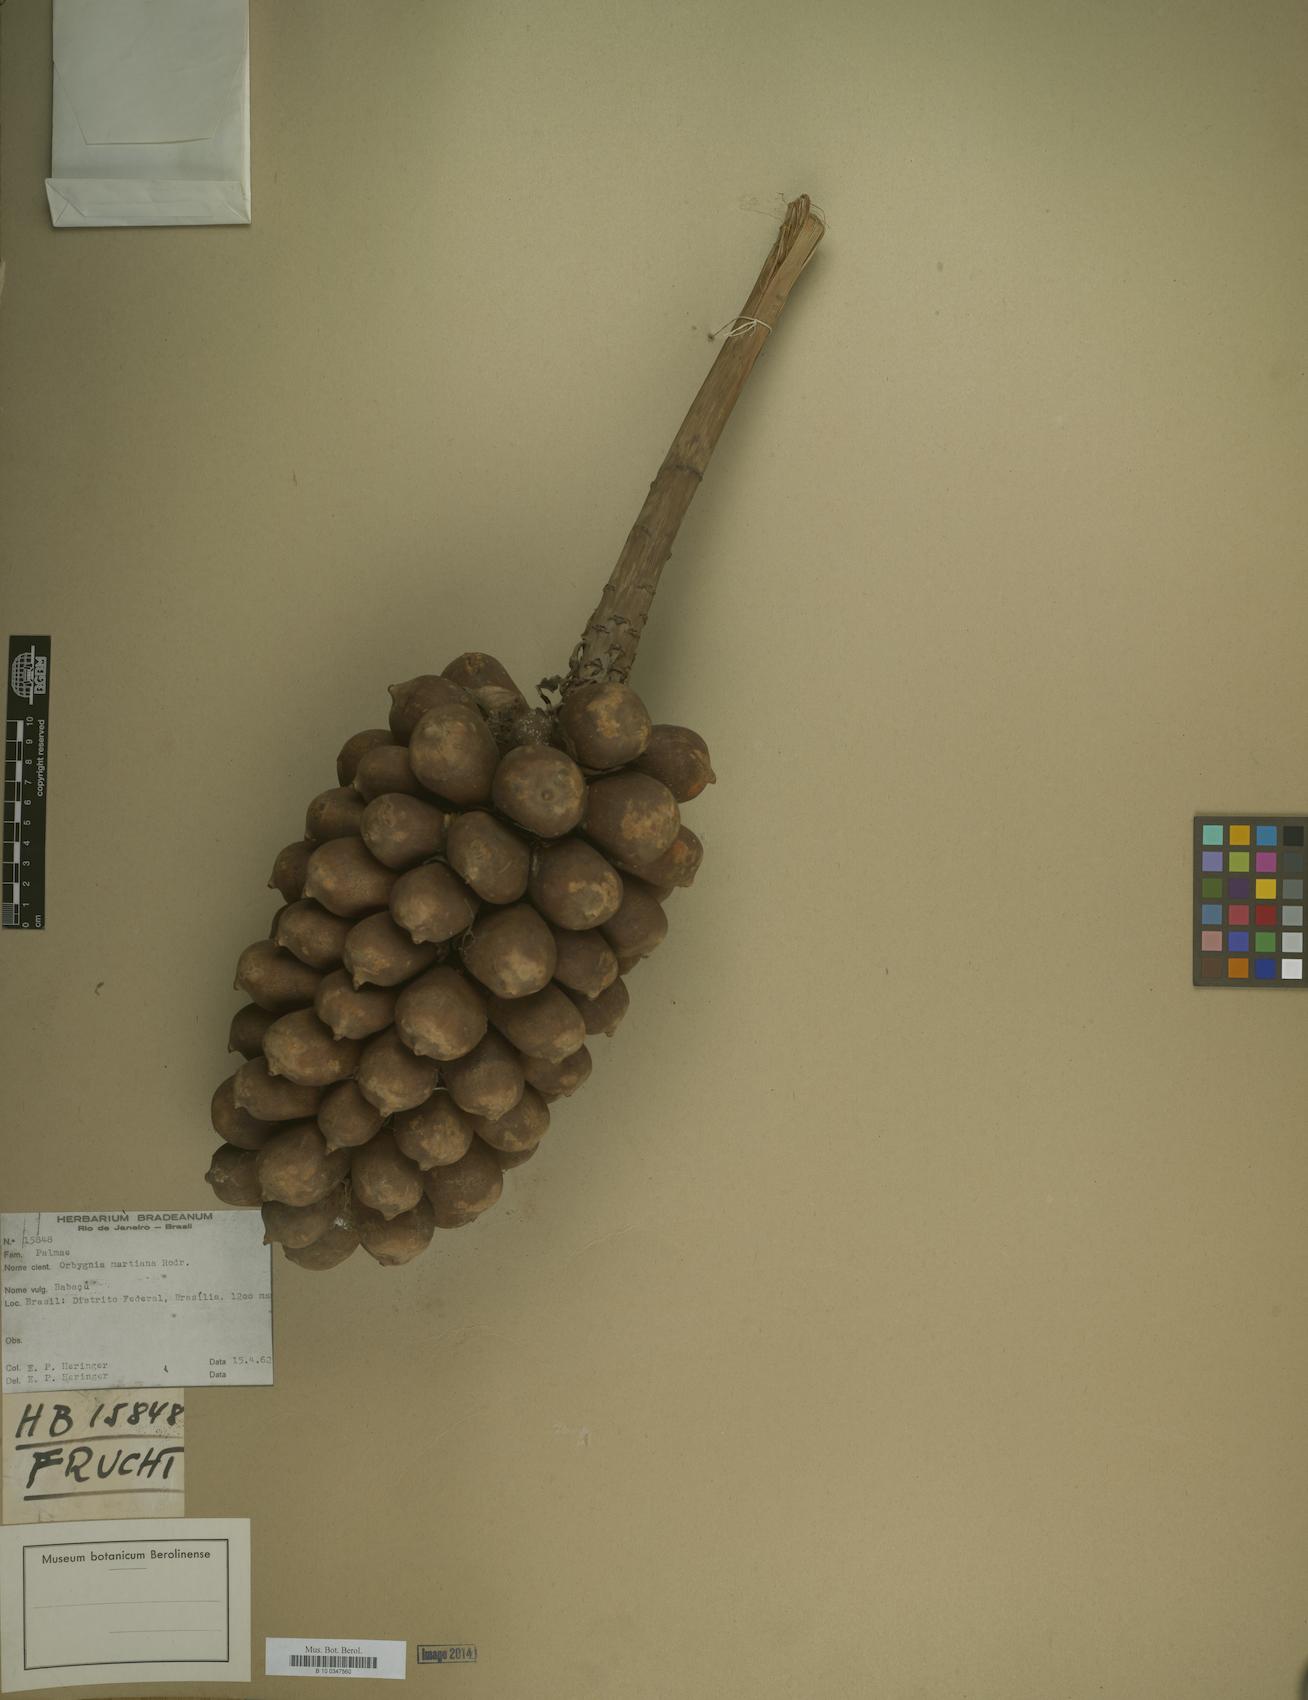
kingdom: Plantae
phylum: Tracheophyta
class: Liliopsida
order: Arecales
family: Arecaceae
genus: Attalea
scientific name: Attalea speciosa
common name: Babassu palm
